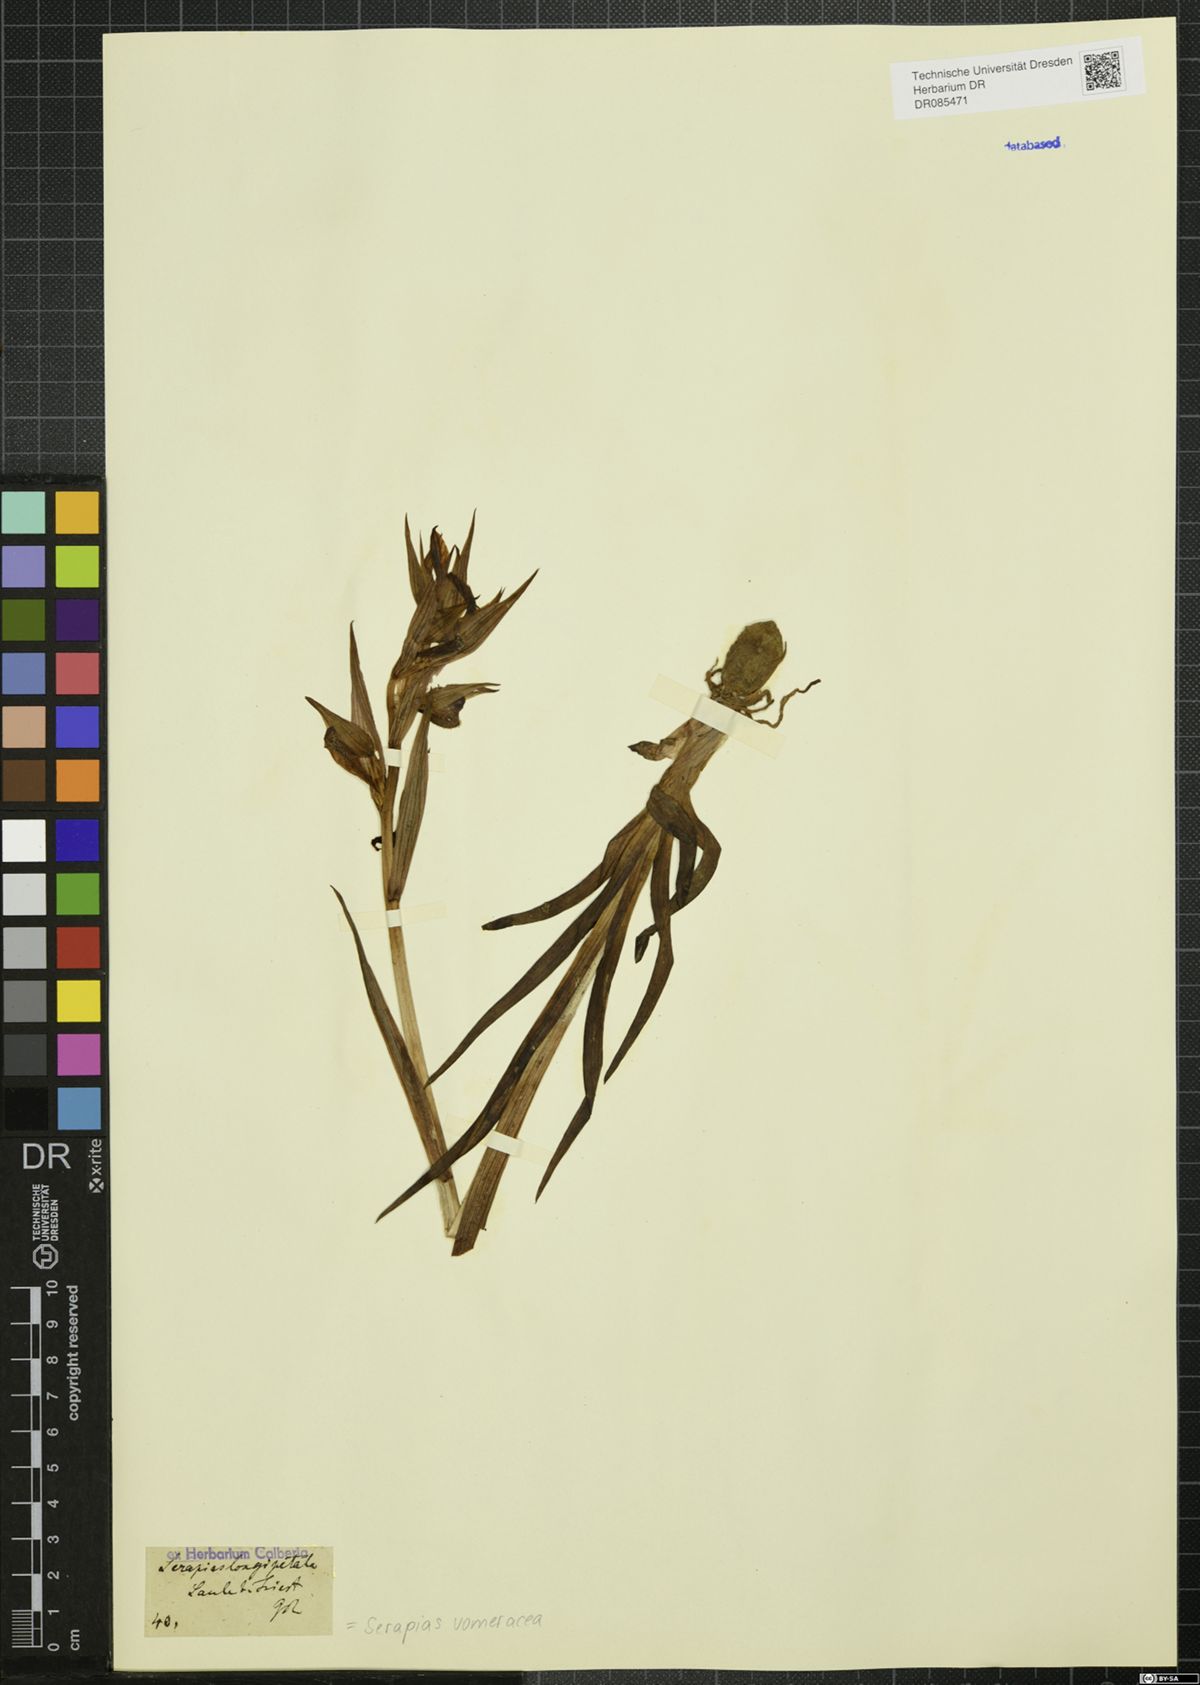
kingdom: Plantae
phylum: Tracheophyta
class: Liliopsida
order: Asparagales
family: Orchidaceae
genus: Serapias
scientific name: Serapias vomeracea
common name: Long-lipped tongue-orchid
